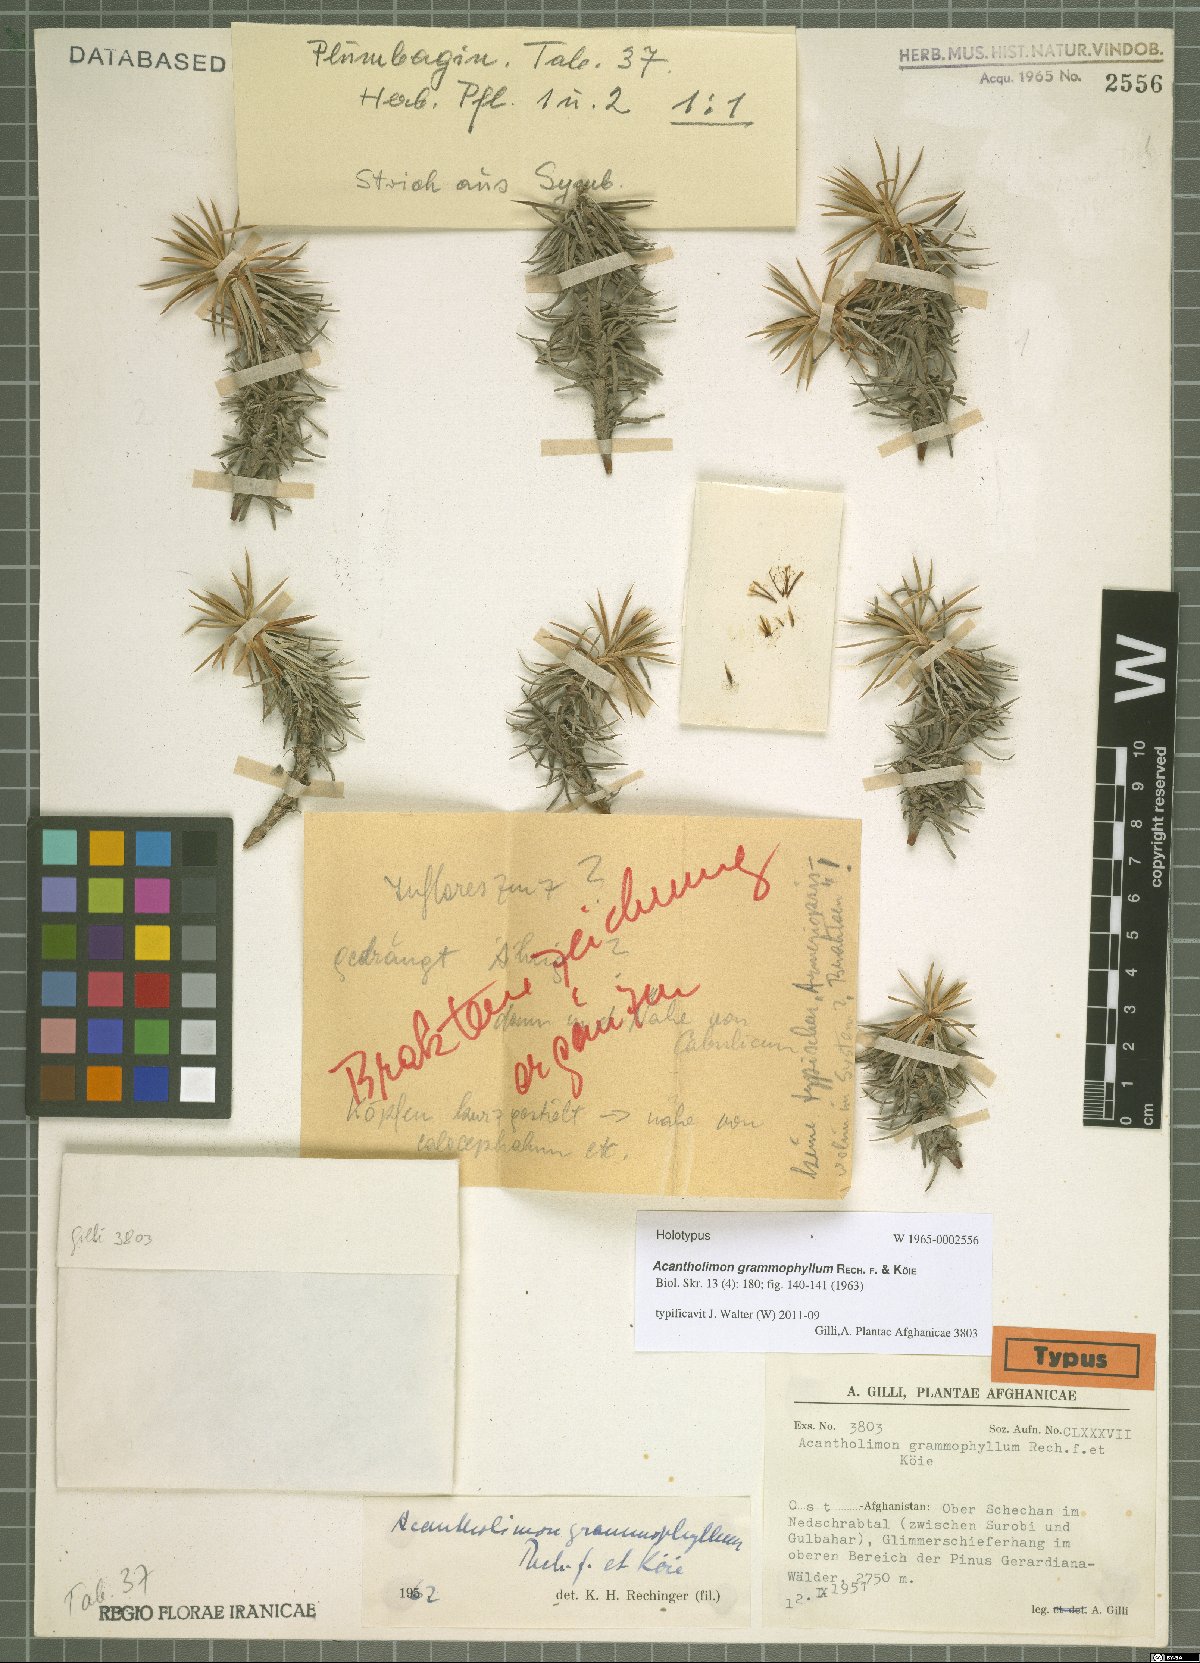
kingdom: Plantae
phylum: Tracheophyta
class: Magnoliopsida
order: Caryophyllales
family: Plumbaginaceae
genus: Acantholimon
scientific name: Acantholimon grammophyllum
